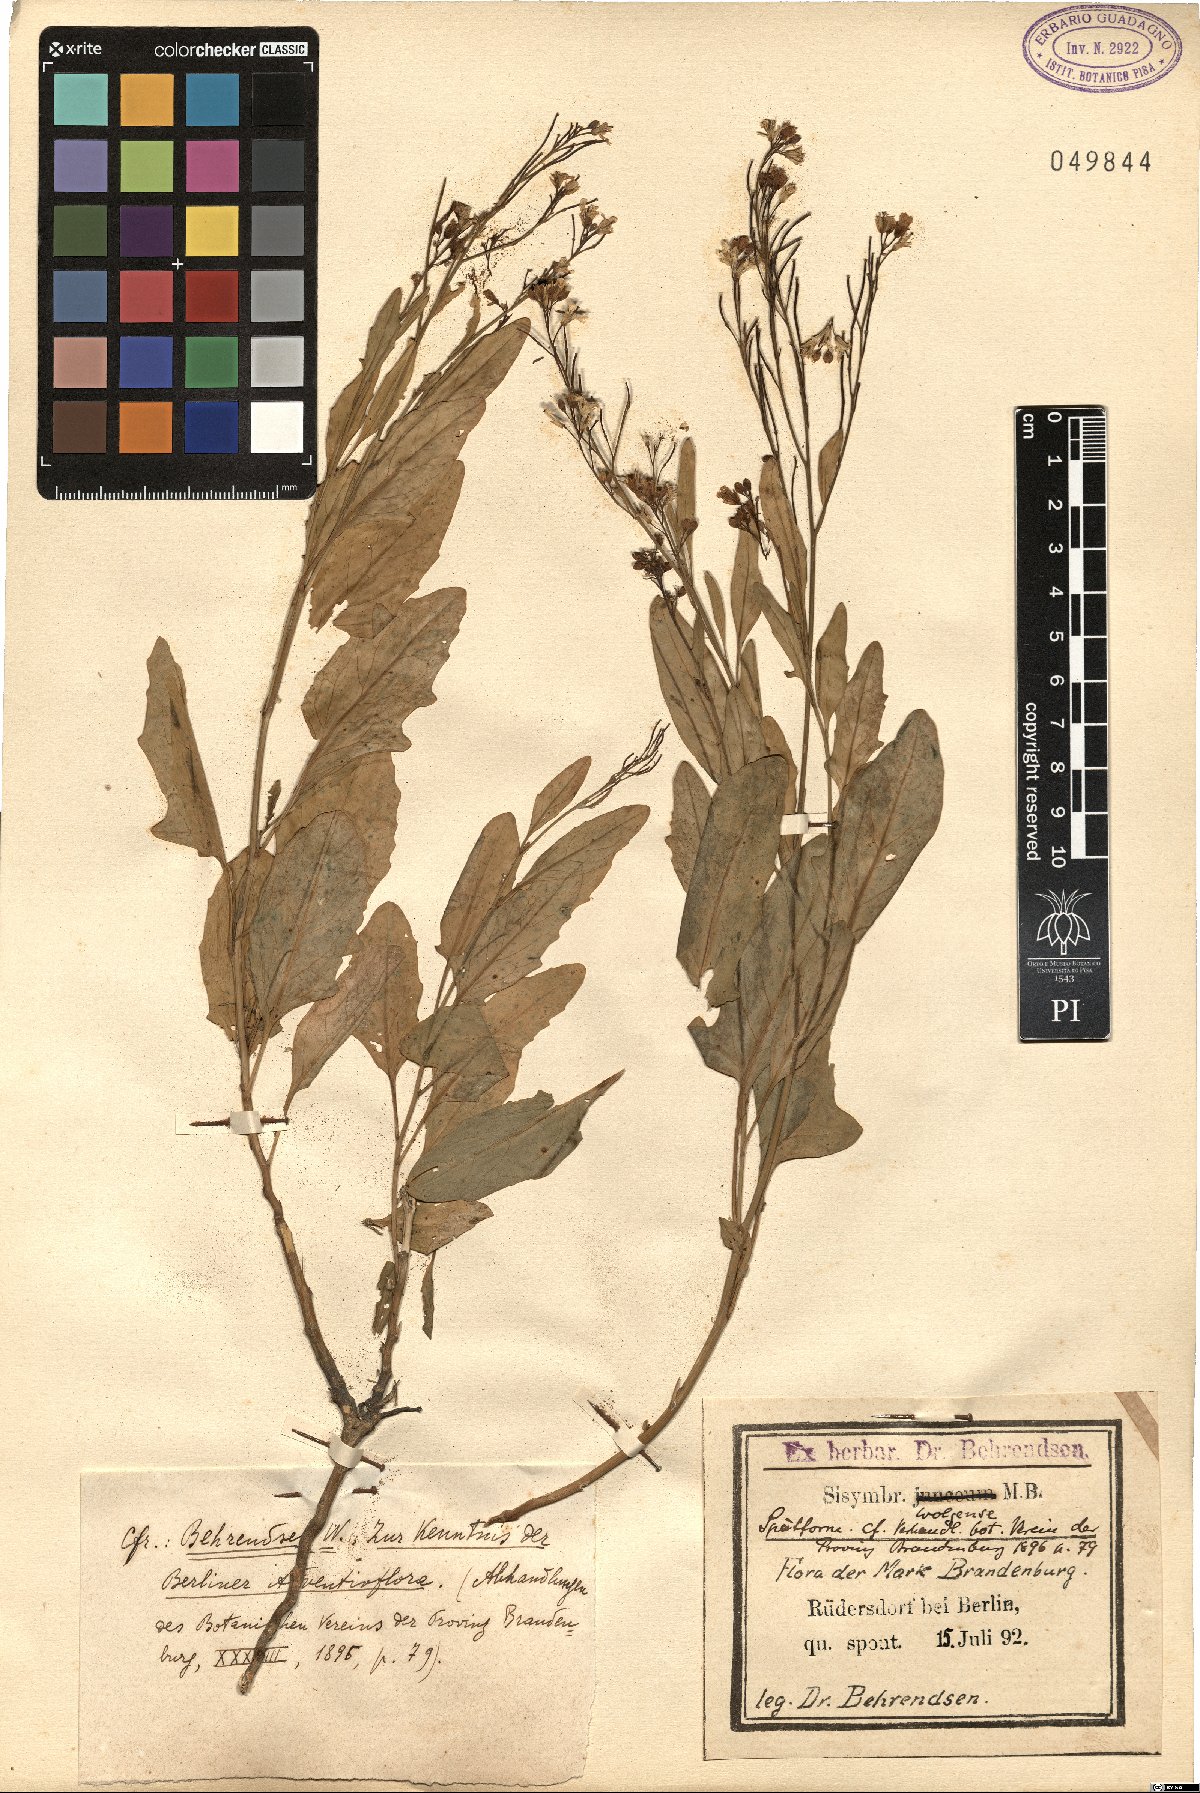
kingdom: Plantae
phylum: Tracheophyta
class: Magnoliopsida
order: Brassicales
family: Brassicaceae
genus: Sisymbrium
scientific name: Sisymbrium volgense
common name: Russian mustard
